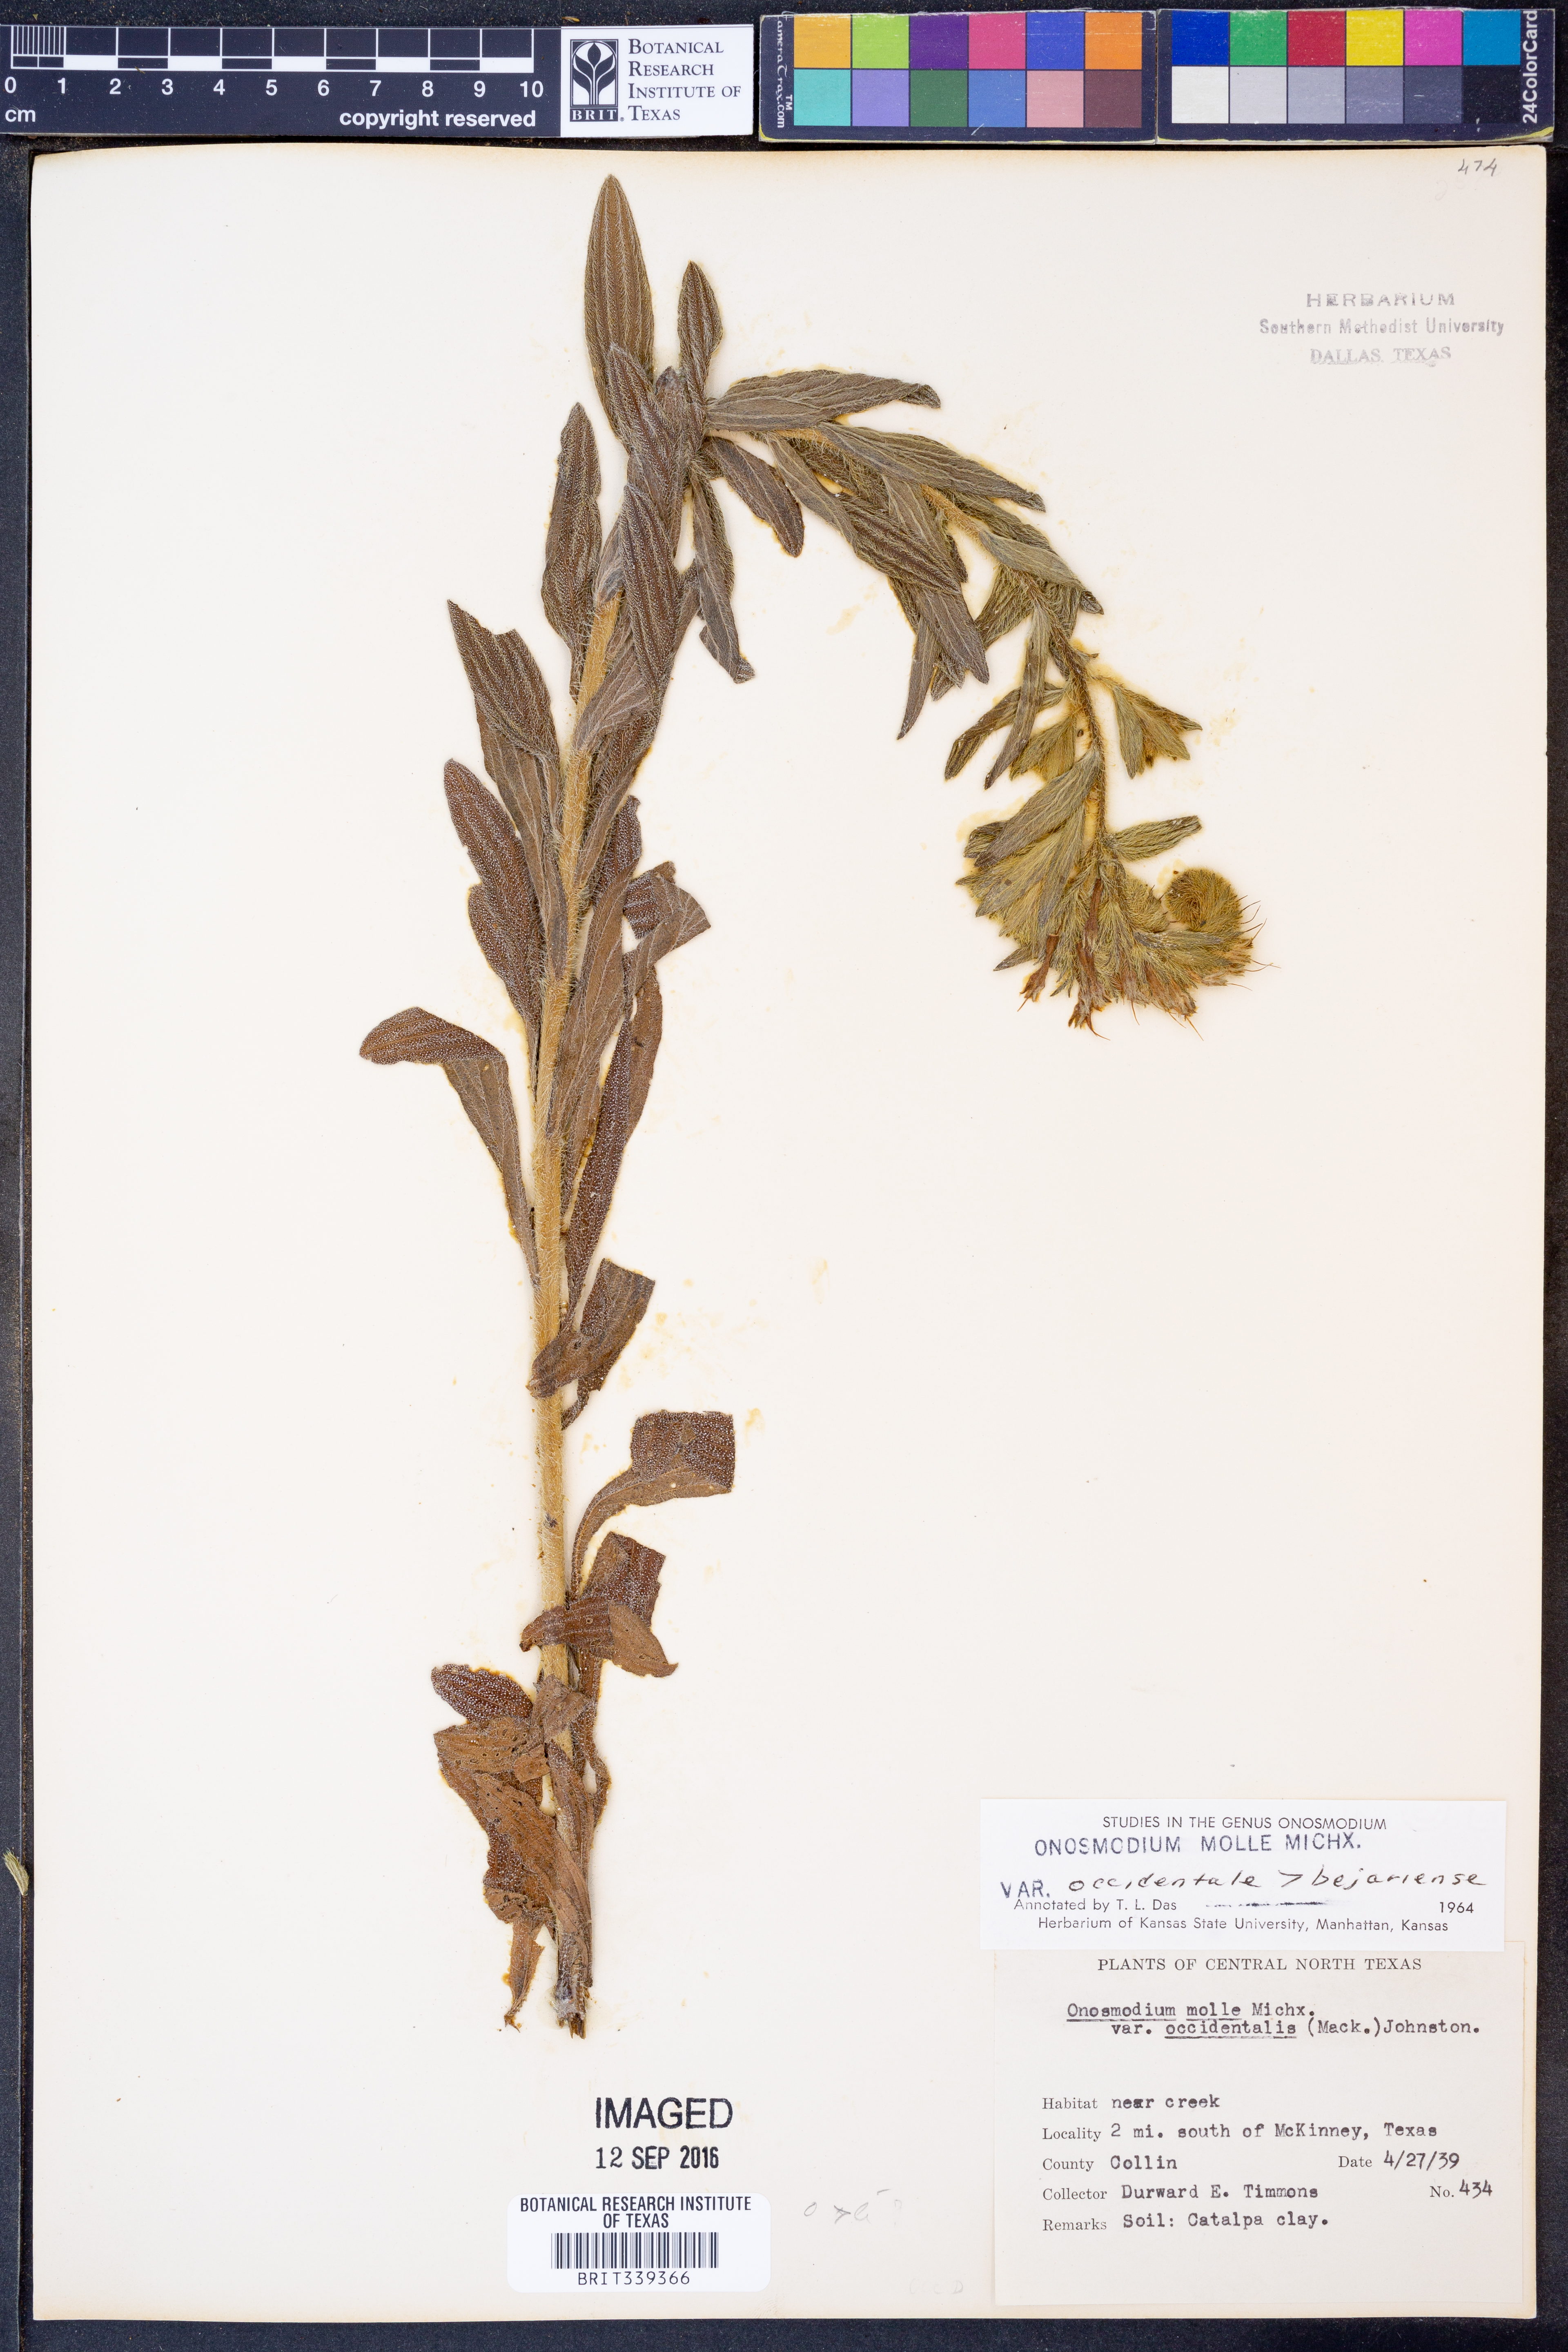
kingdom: Plantae
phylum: Tracheophyta
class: Magnoliopsida
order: Boraginales
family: Boraginaceae
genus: Lithospermum
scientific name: Lithospermum occidentale
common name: Western false gromwell
